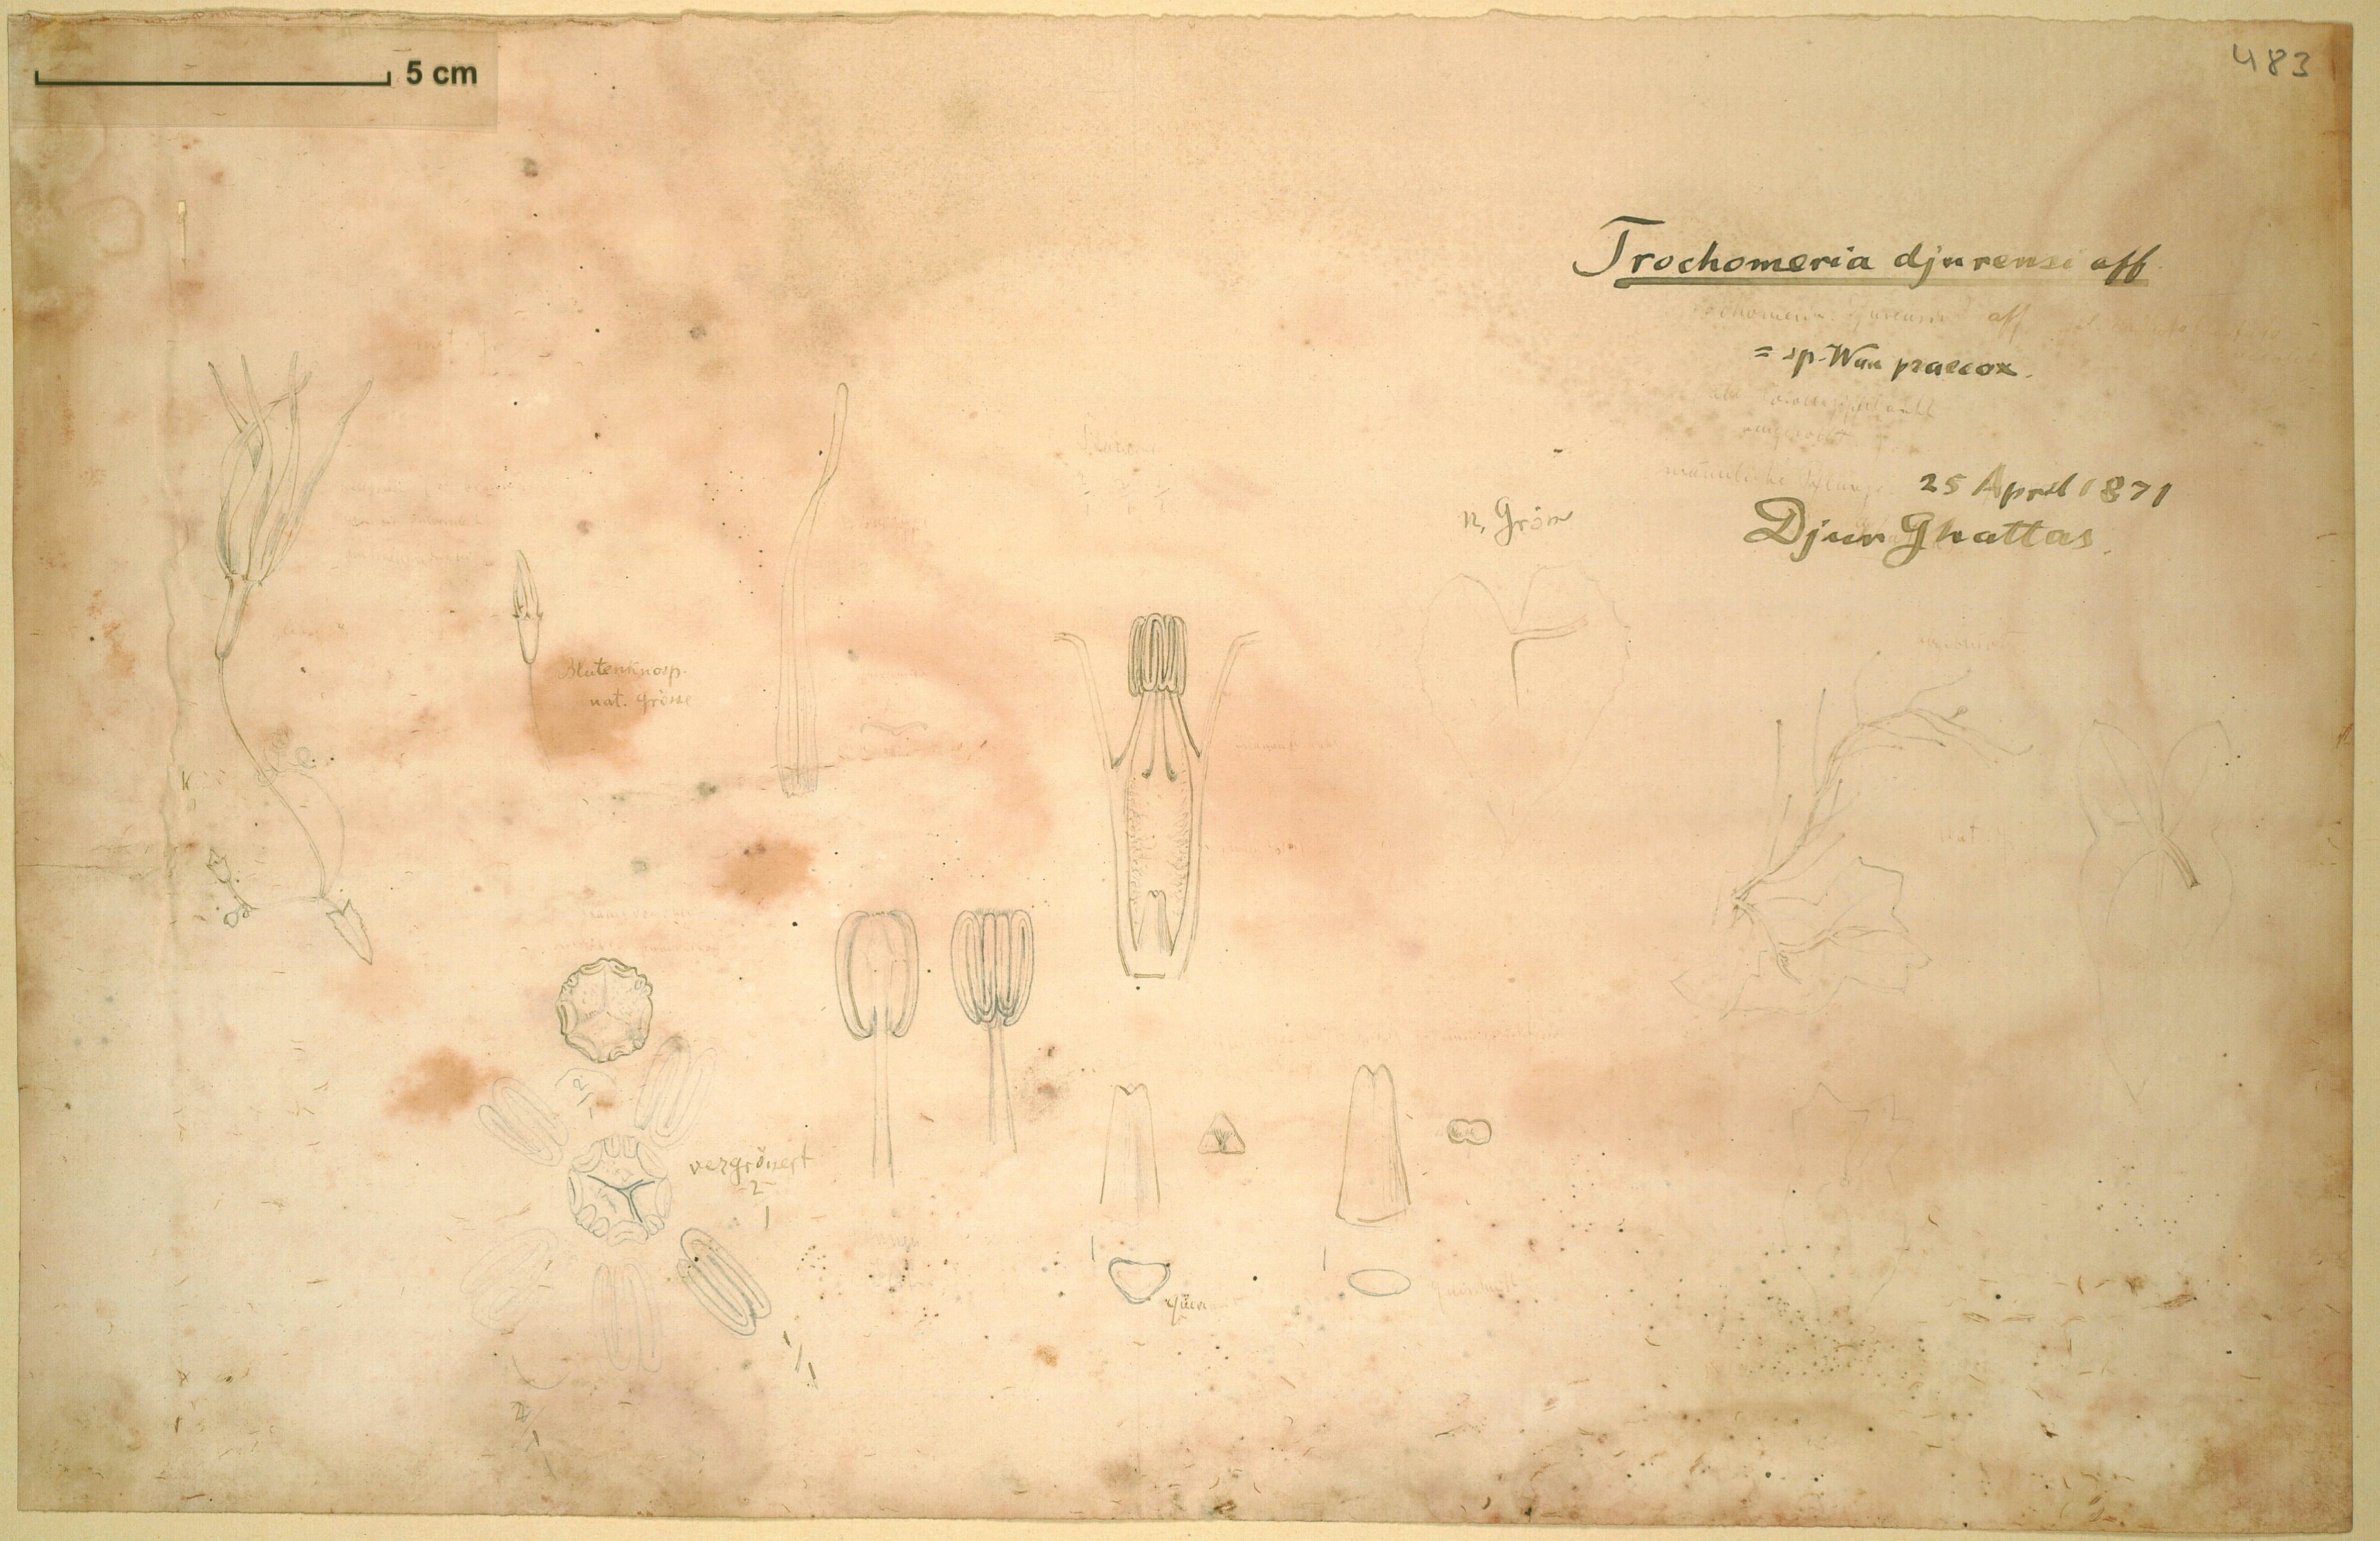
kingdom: Plantae
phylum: Tracheophyta
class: Magnoliopsida
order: Cucurbitales
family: Cucurbitaceae
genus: Trochomeria
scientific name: Trochomeria macrocarpa
